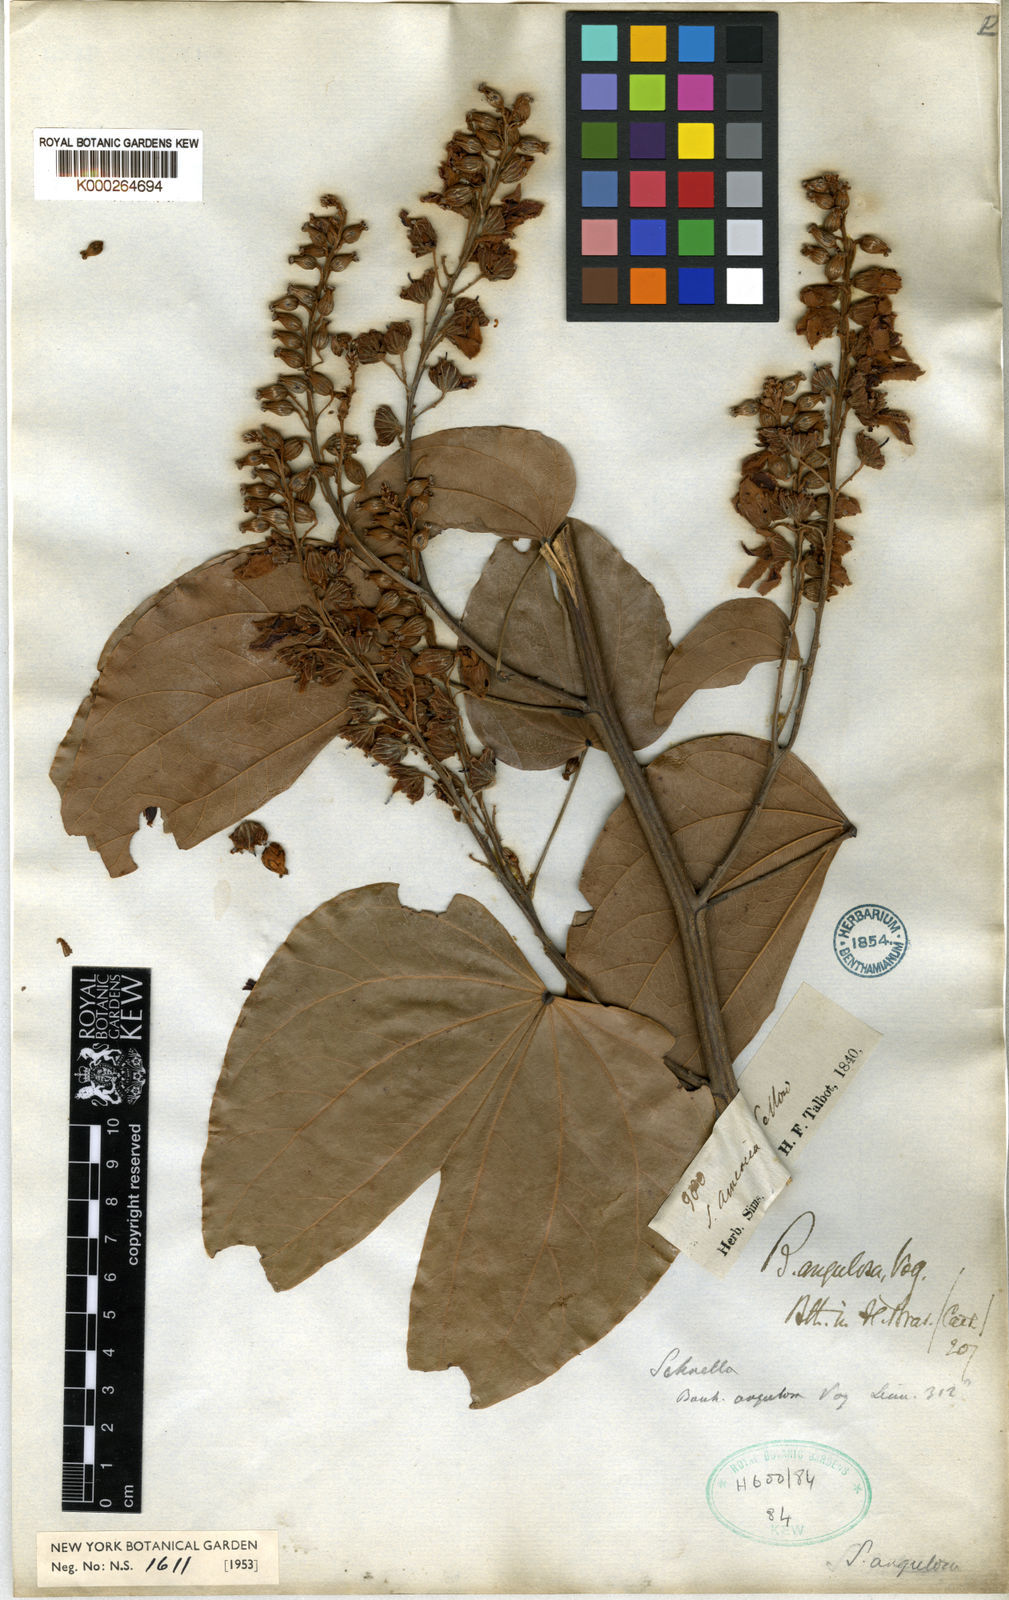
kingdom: Plantae
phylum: Tracheophyta
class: Magnoliopsida
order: Fabales
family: Fabaceae
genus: Schnella
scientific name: Schnella angulosa
